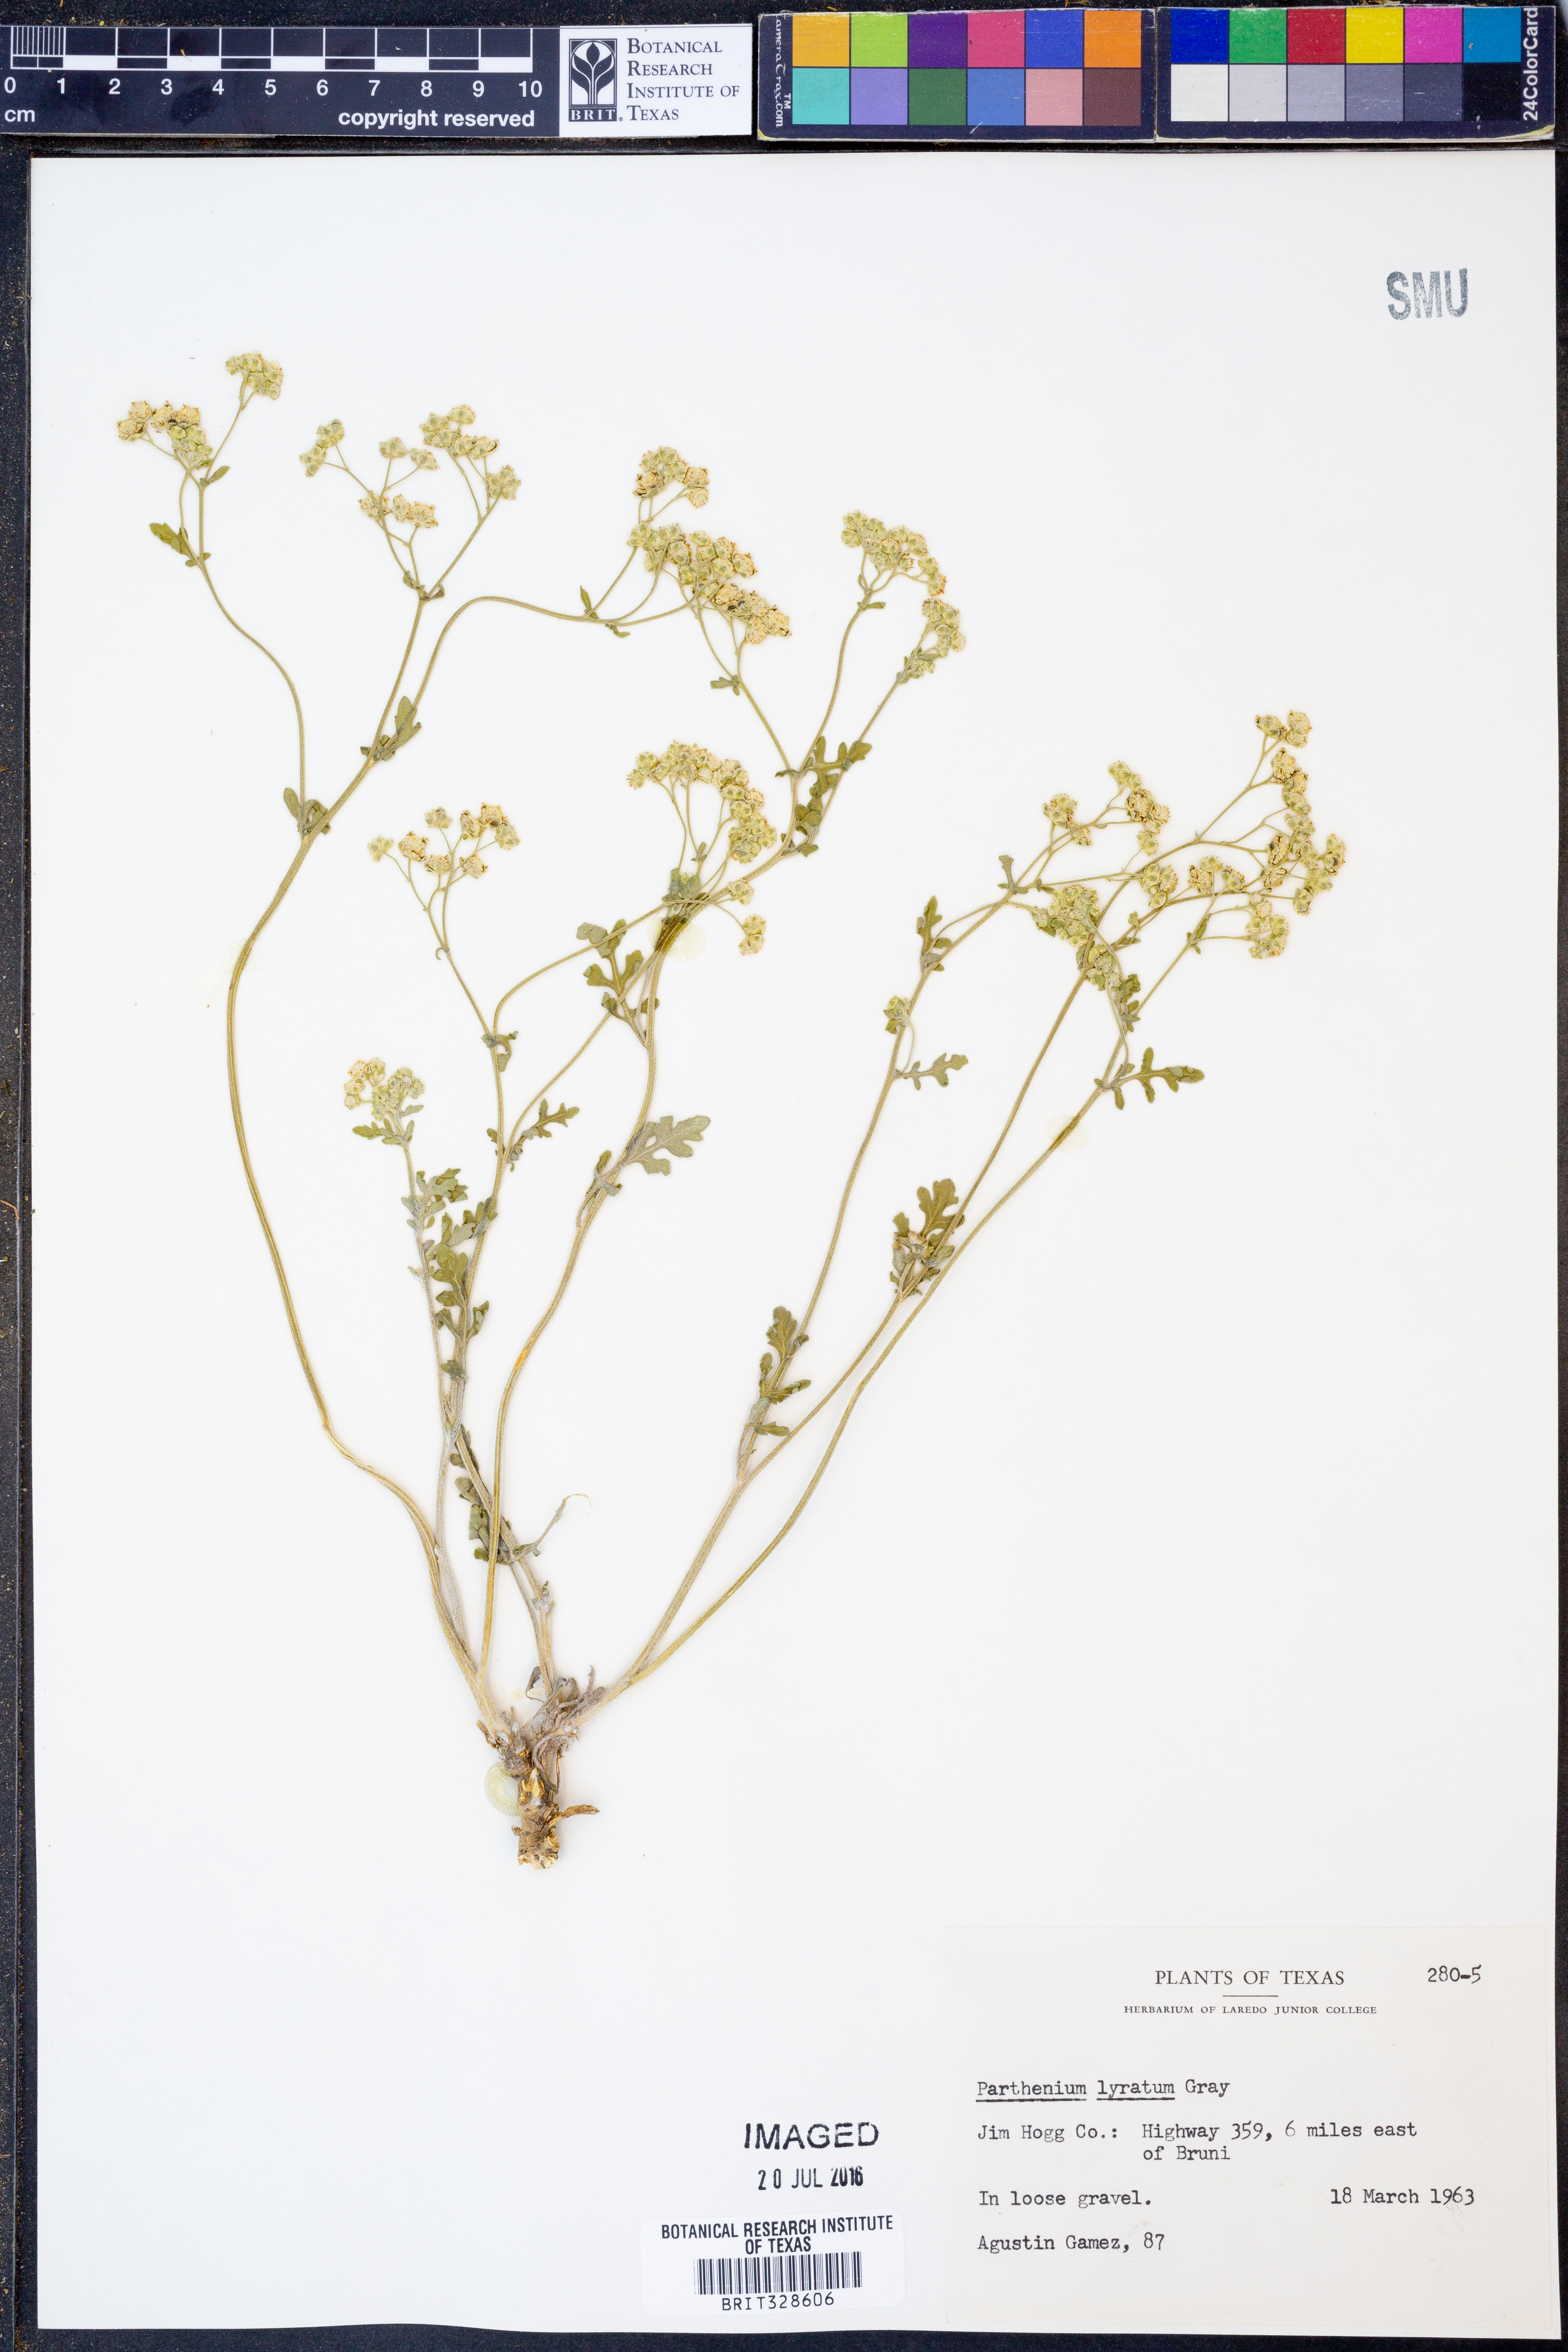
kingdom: Plantae
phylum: Tracheophyta
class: Magnoliopsida
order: Asterales
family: Asteraceae
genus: Parthenium
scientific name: Parthenium confertum
